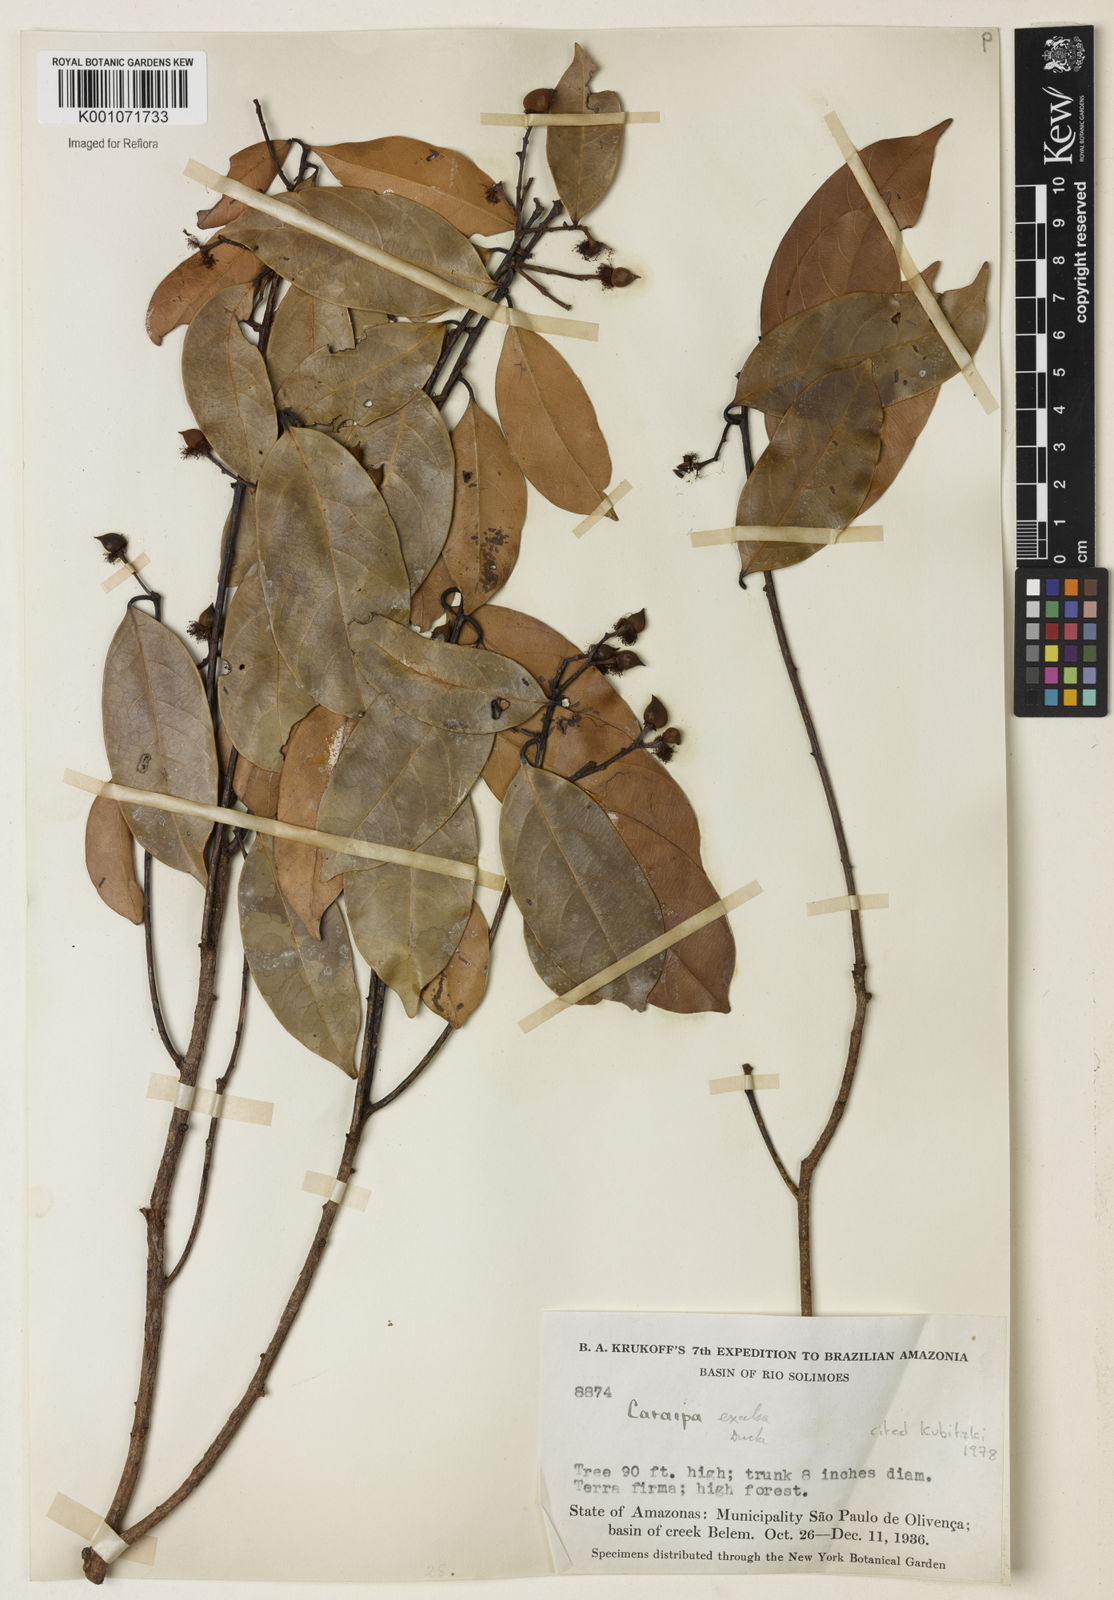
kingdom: Plantae
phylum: Tracheophyta
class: Magnoliopsida
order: Malpighiales
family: Calophyllaceae
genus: Caraipa
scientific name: Caraipa densifolia
